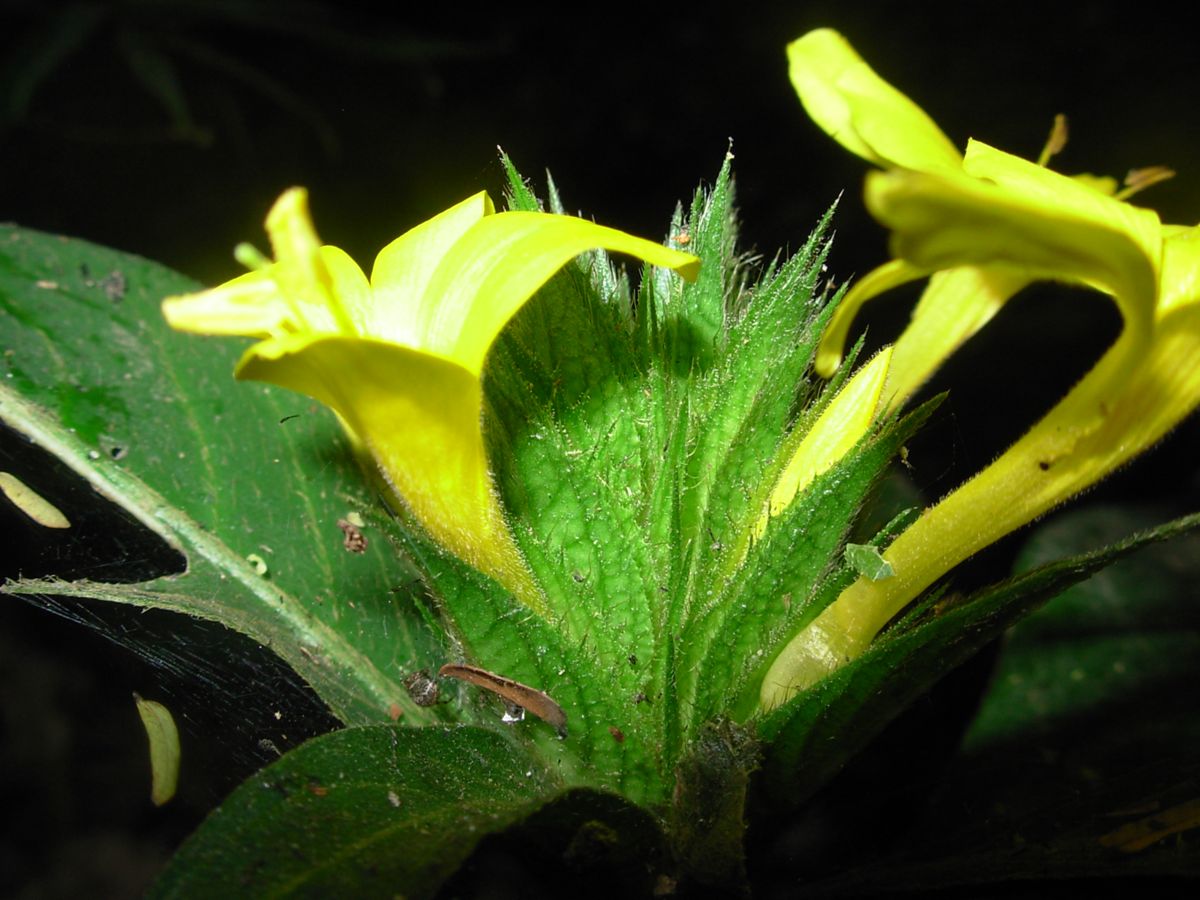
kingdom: Plantae
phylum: Tracheophyta
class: Magnoliopsida
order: Lamiales
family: Acanthaceae
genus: Barleria
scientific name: Barleria oenotheroides
